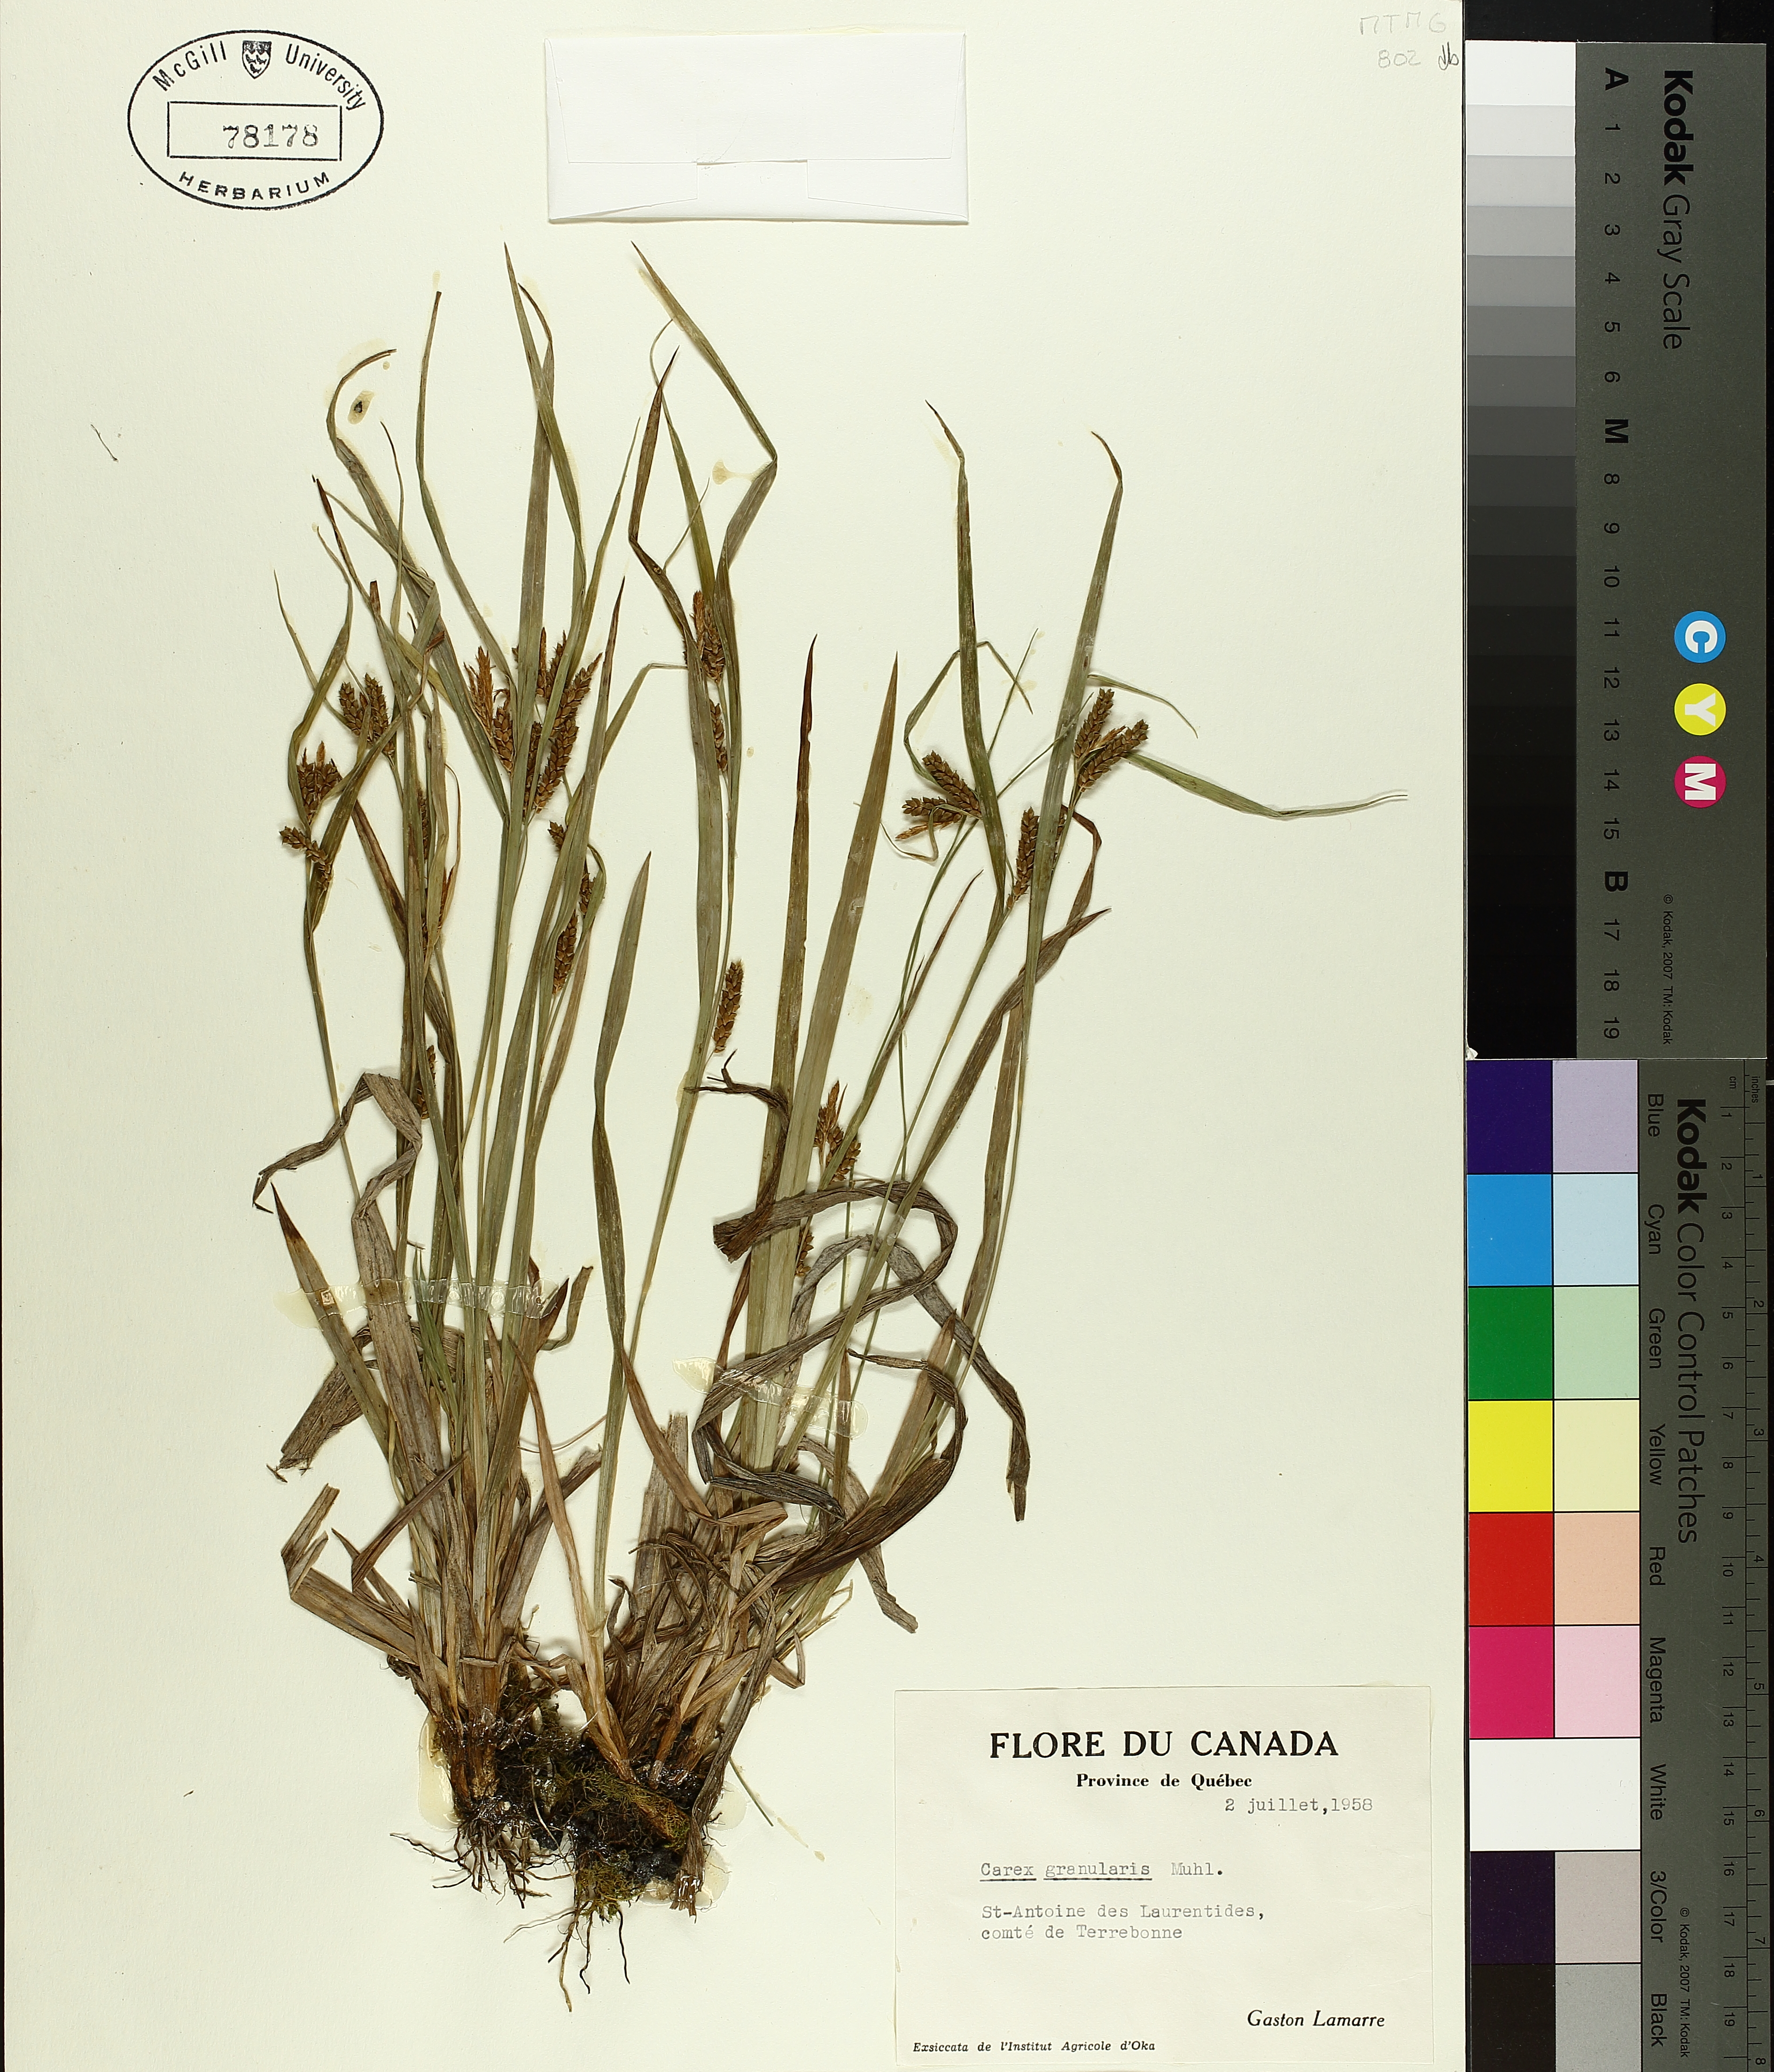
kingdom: Plantae
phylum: Tracheophyta
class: Liliopsida
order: Poales
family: Cyperaceae
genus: Carex
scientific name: Carex granularis
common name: Granular sedge
